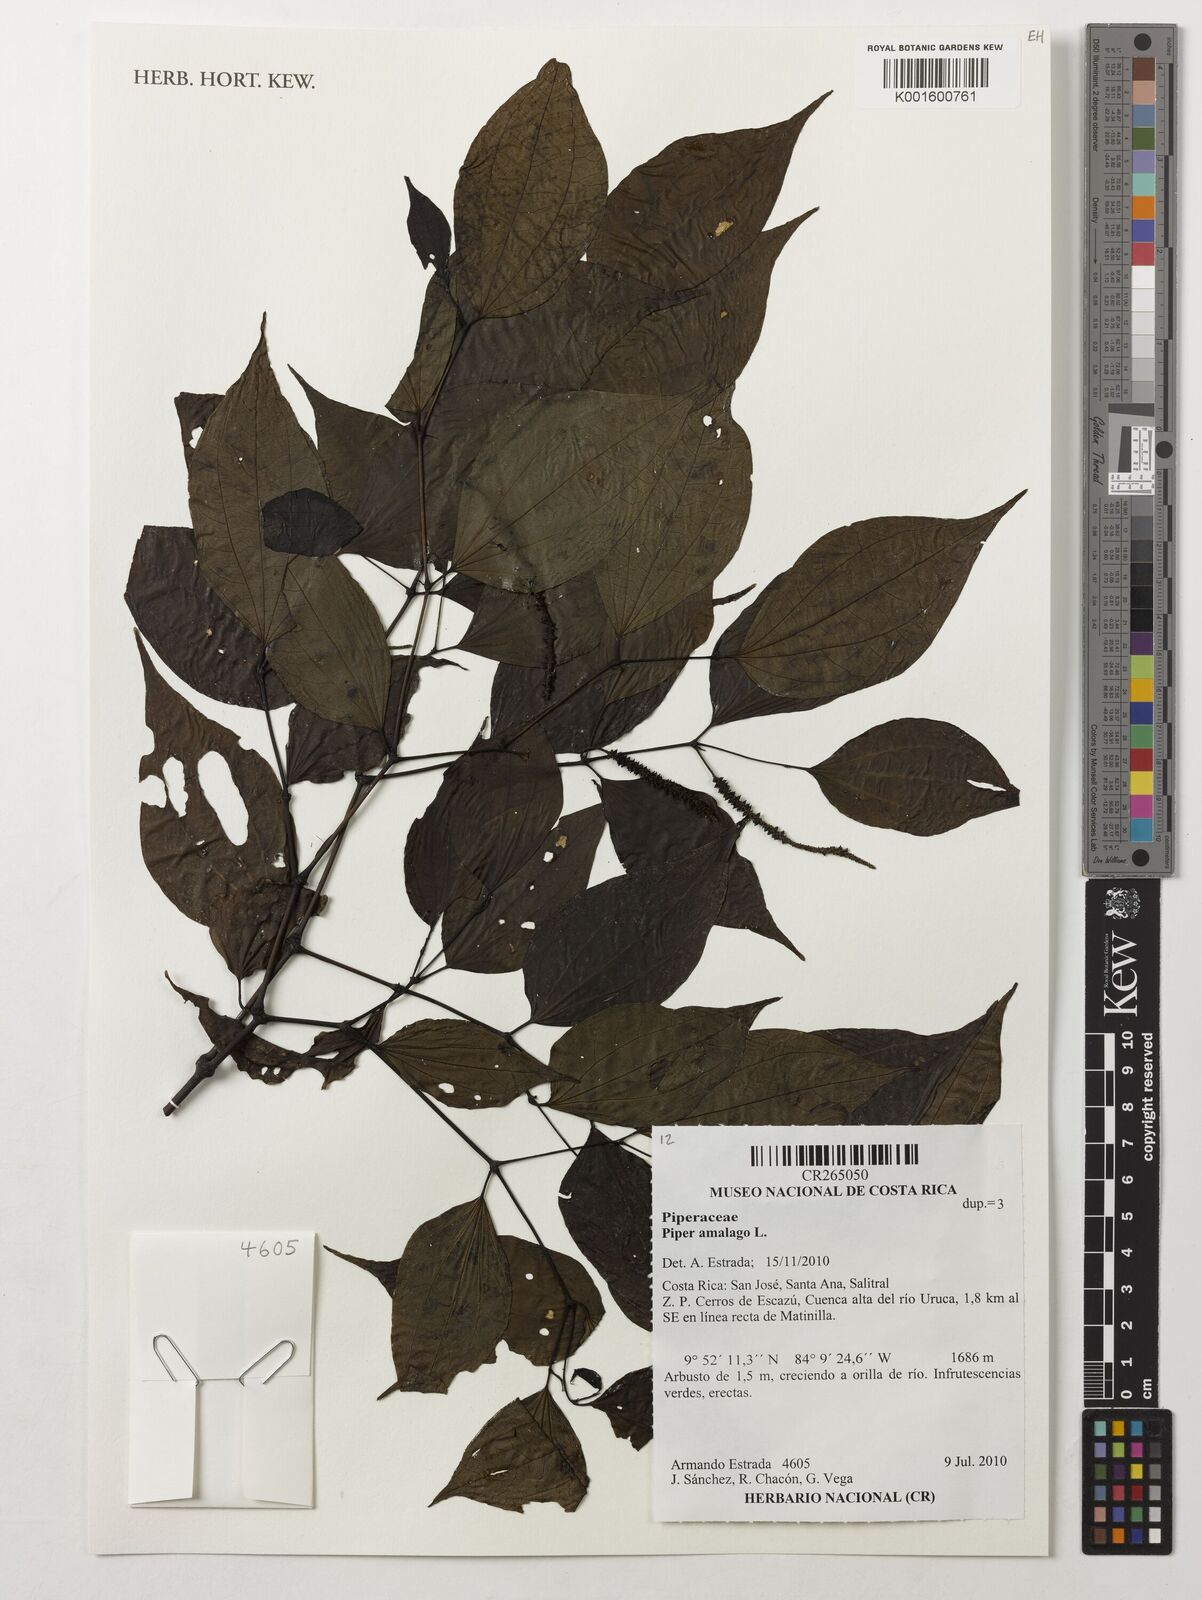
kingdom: Plantae
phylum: Tracheophyta
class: Magnoliopsida
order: Piperales
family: Piperaceae
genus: Piper
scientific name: Piper amalago
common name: Pepper-elder
